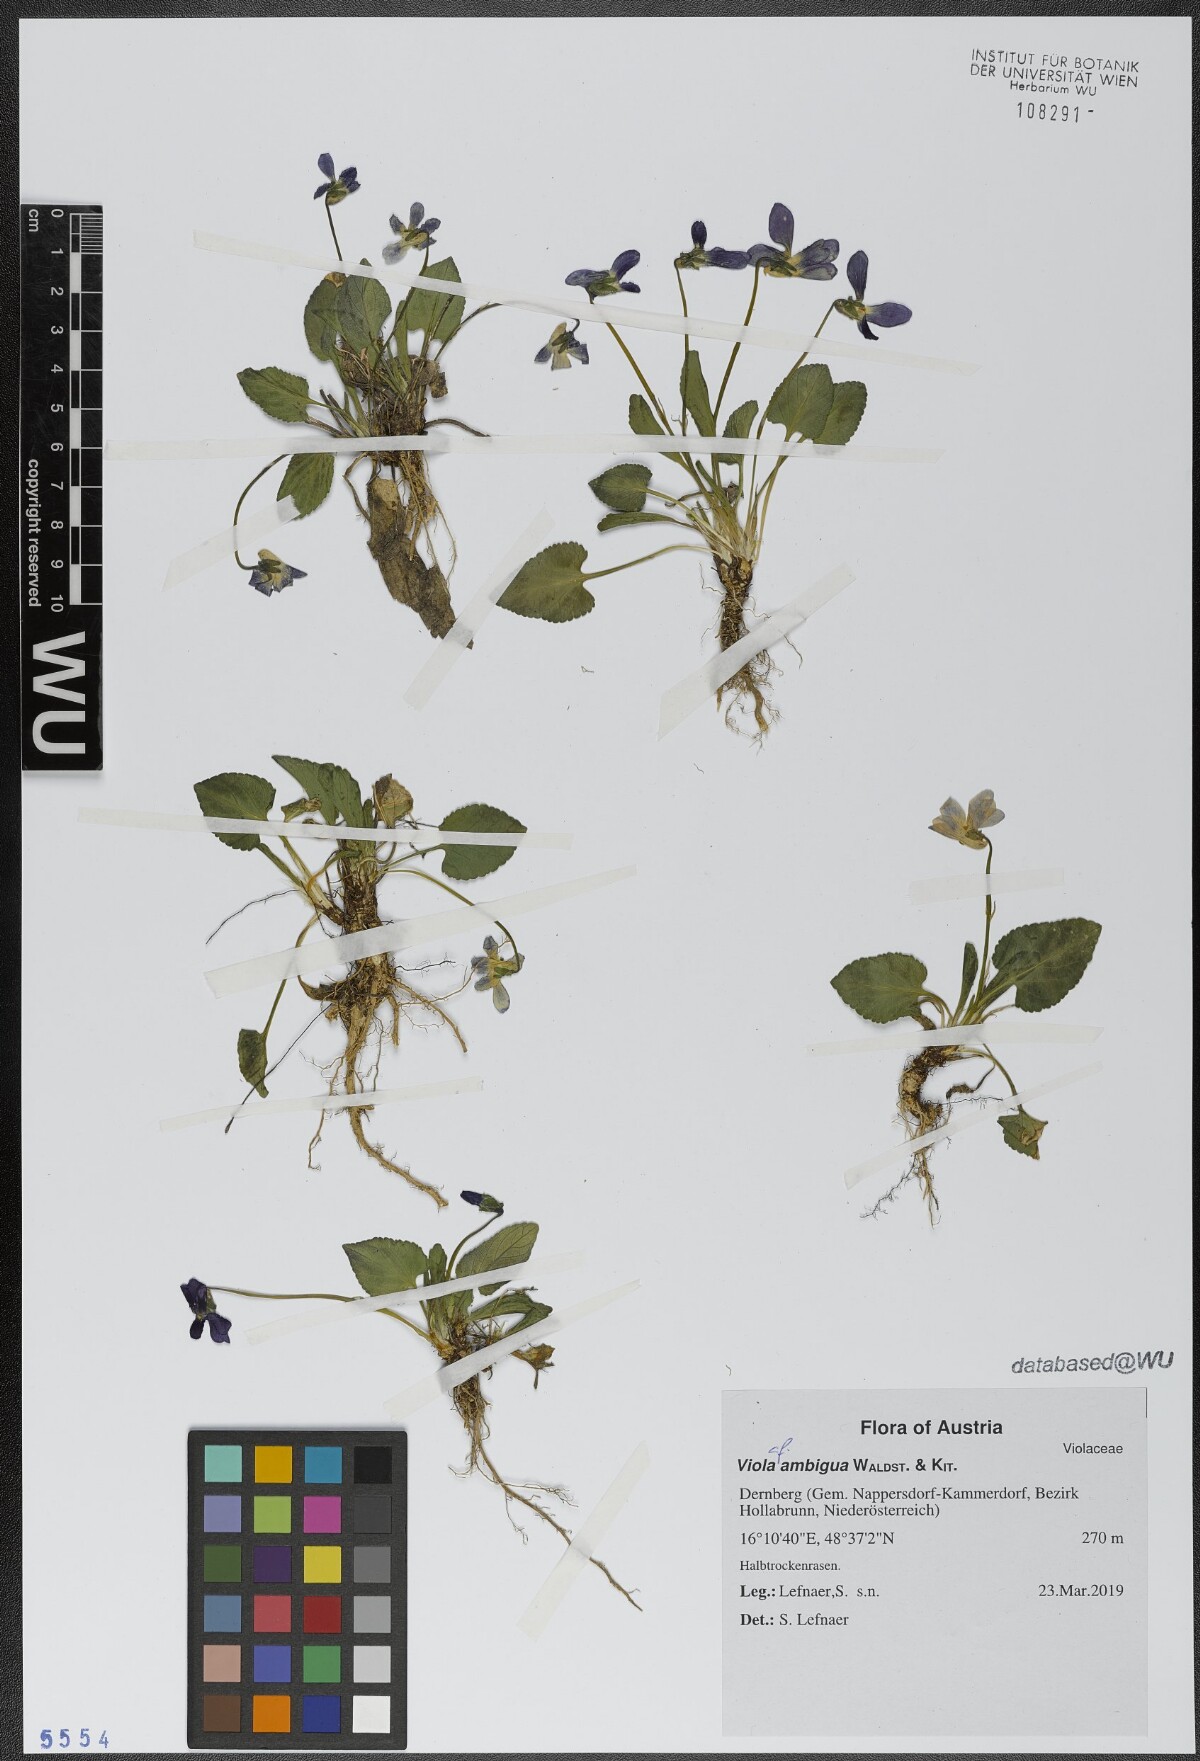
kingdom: Plantae
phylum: Tracheophyta
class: Magnoliopsida
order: Malpighiales
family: Violaceae
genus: Viola
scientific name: Viola ambigua
